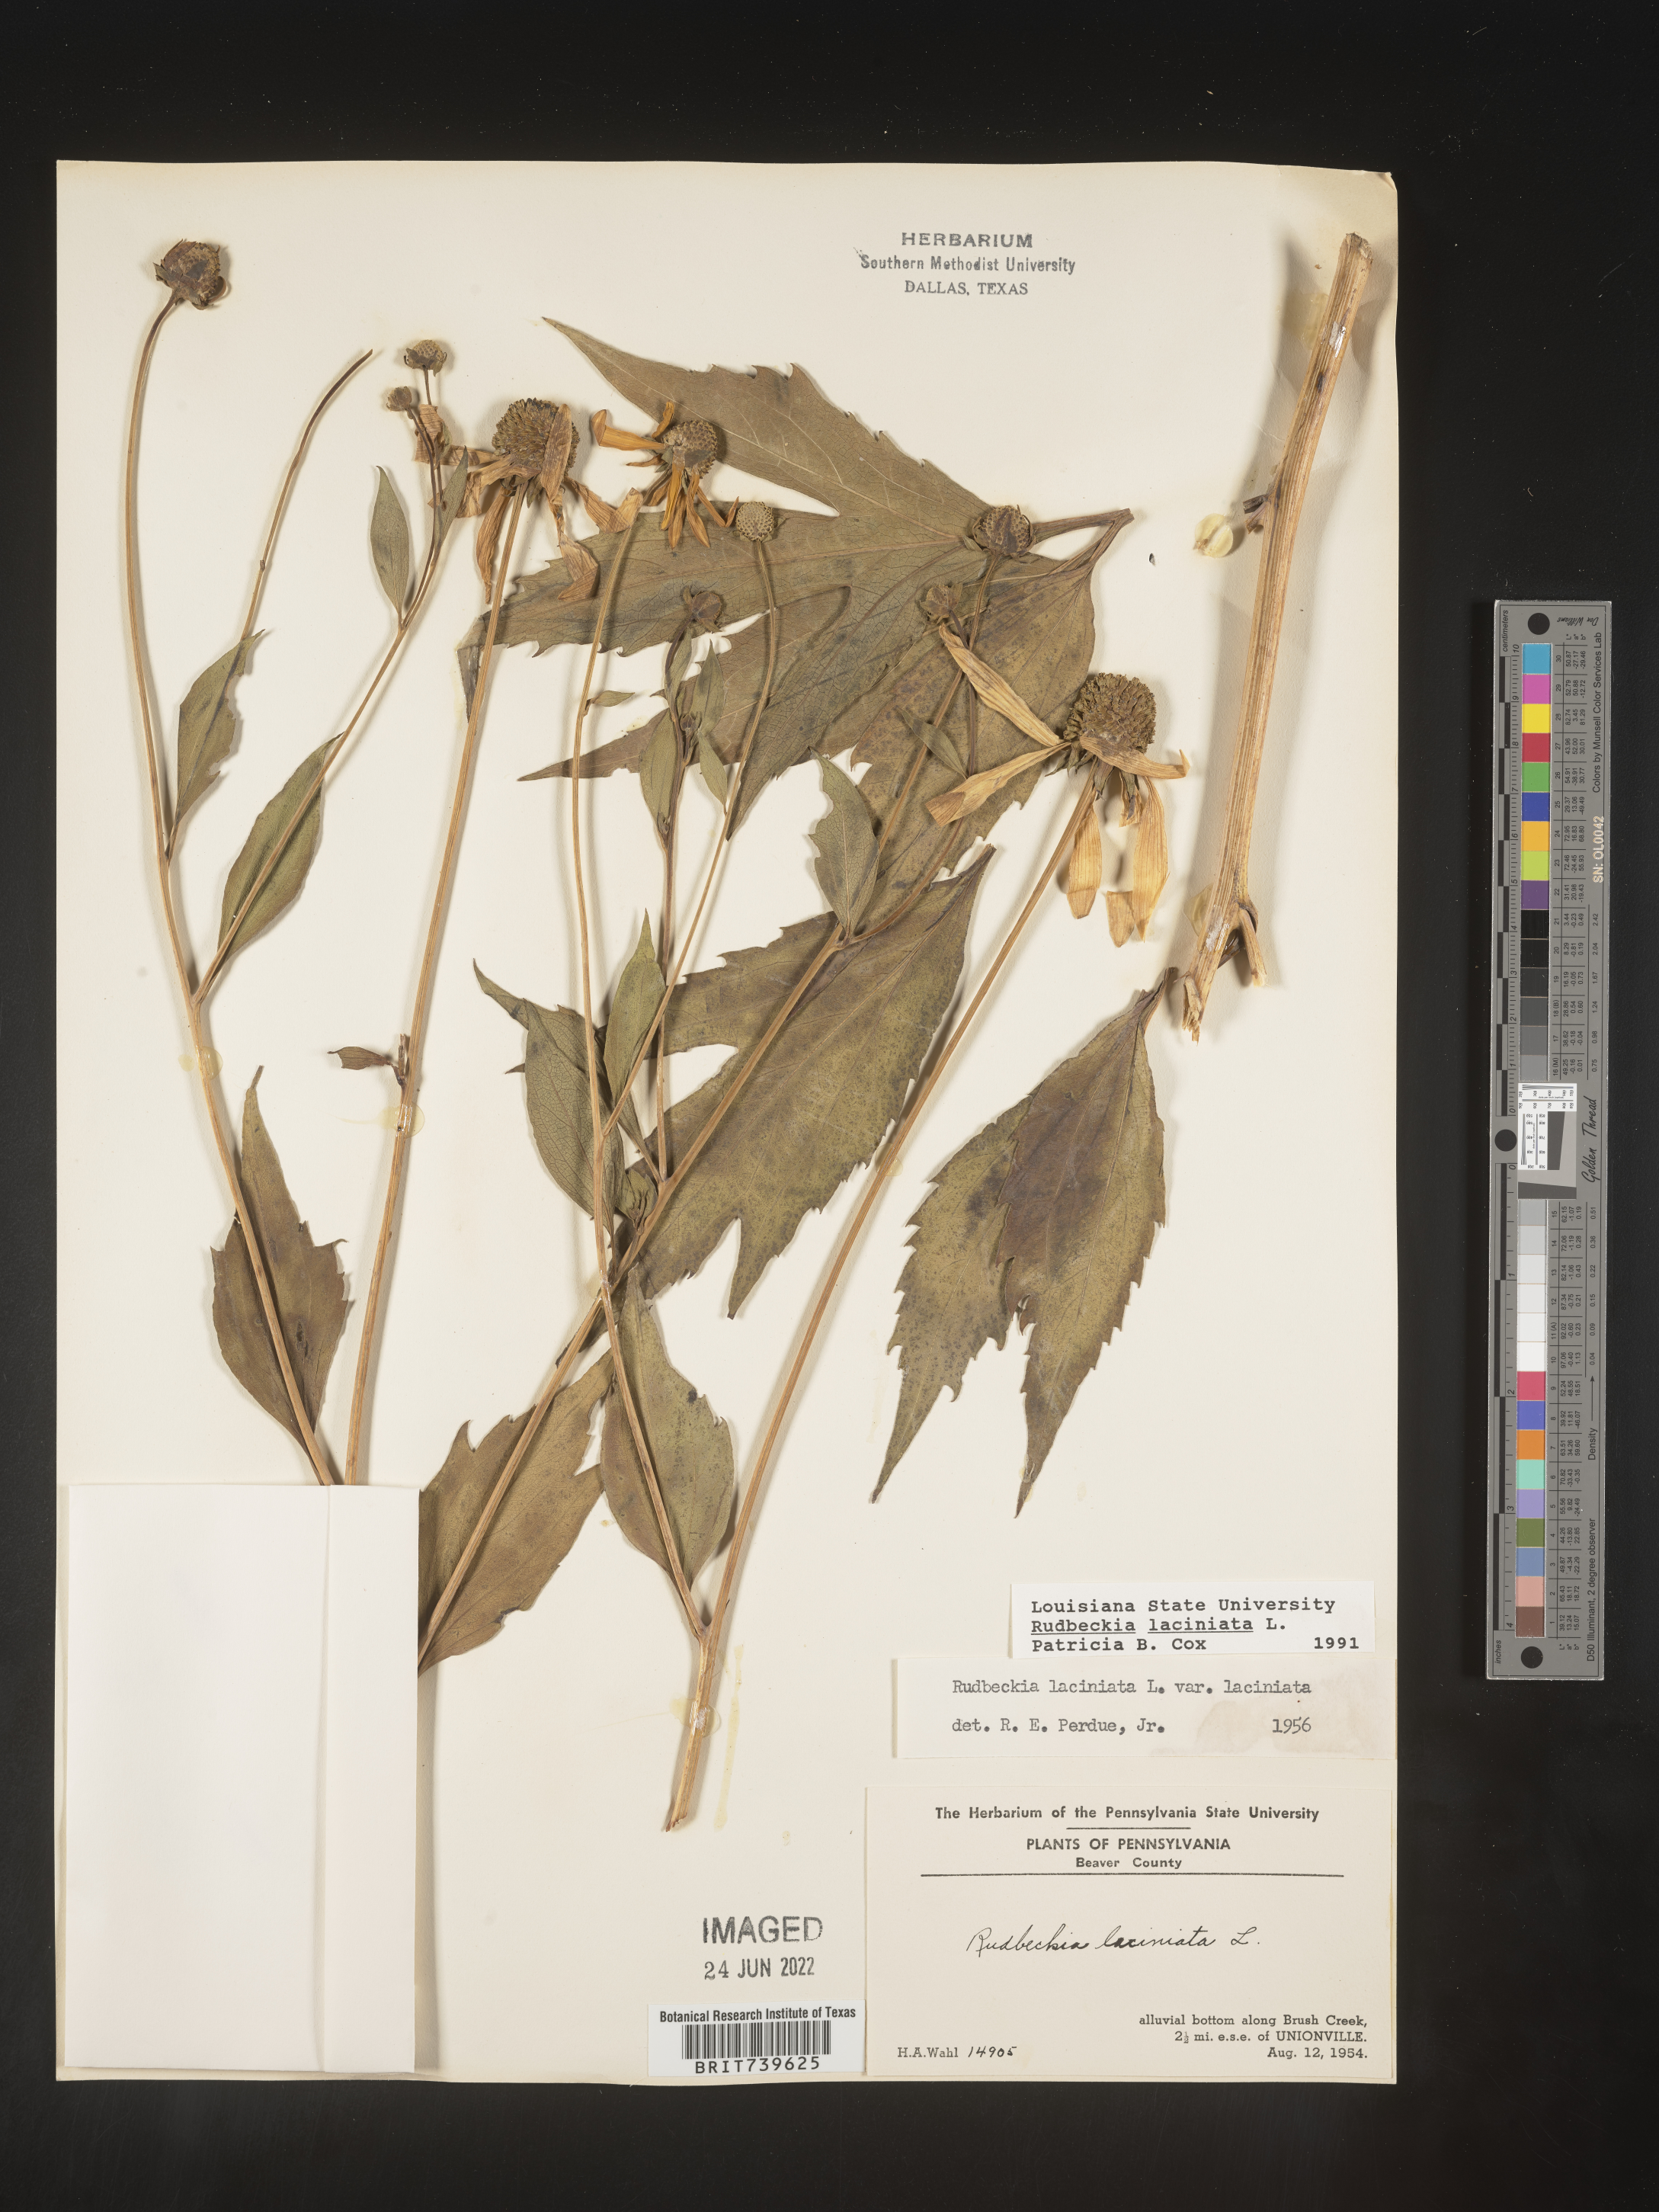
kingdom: Plantae
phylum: Tracheophyta
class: Magnoliopsida
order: Asterales
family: Asteraceae
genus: Rudbeckia
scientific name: Rudbeckia laciniata
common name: Coneflower
